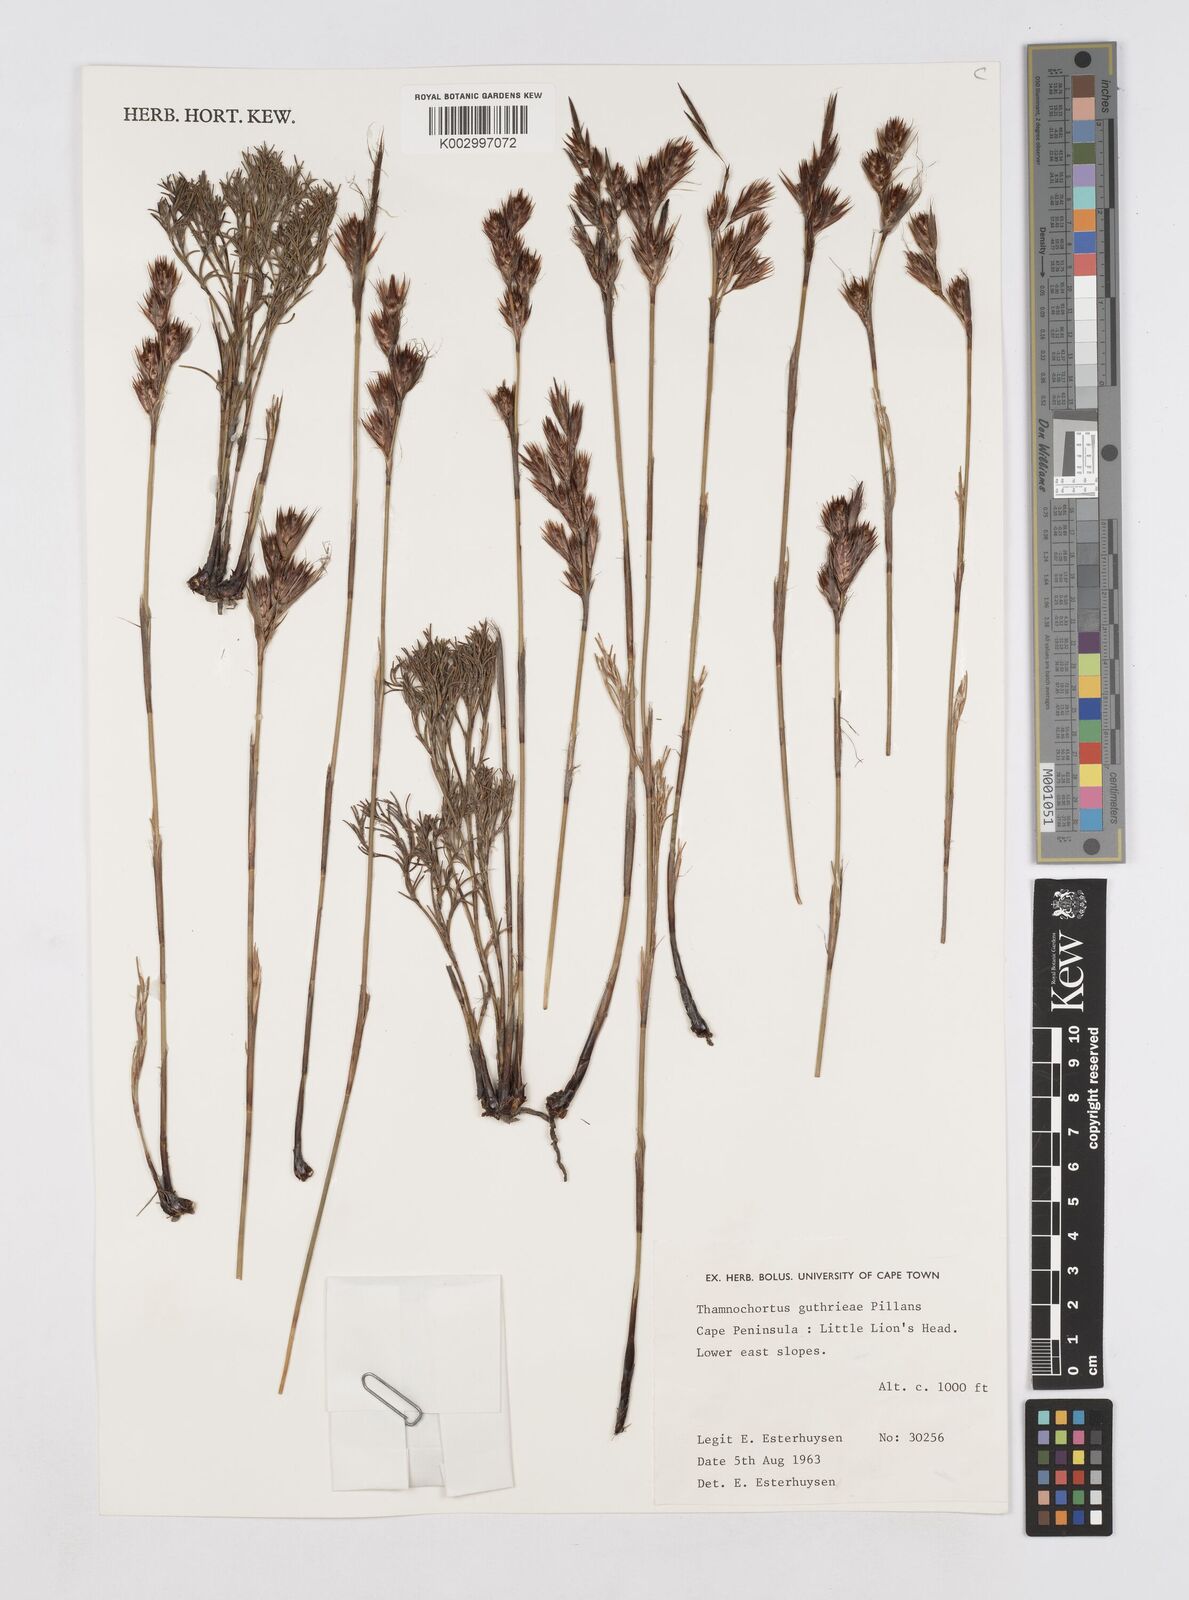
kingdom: Plantae
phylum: Tracheophyta
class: Liliopsida
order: Poales
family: Restionaceae
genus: Thamnochortus
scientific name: Thamnochortus guthrieae
